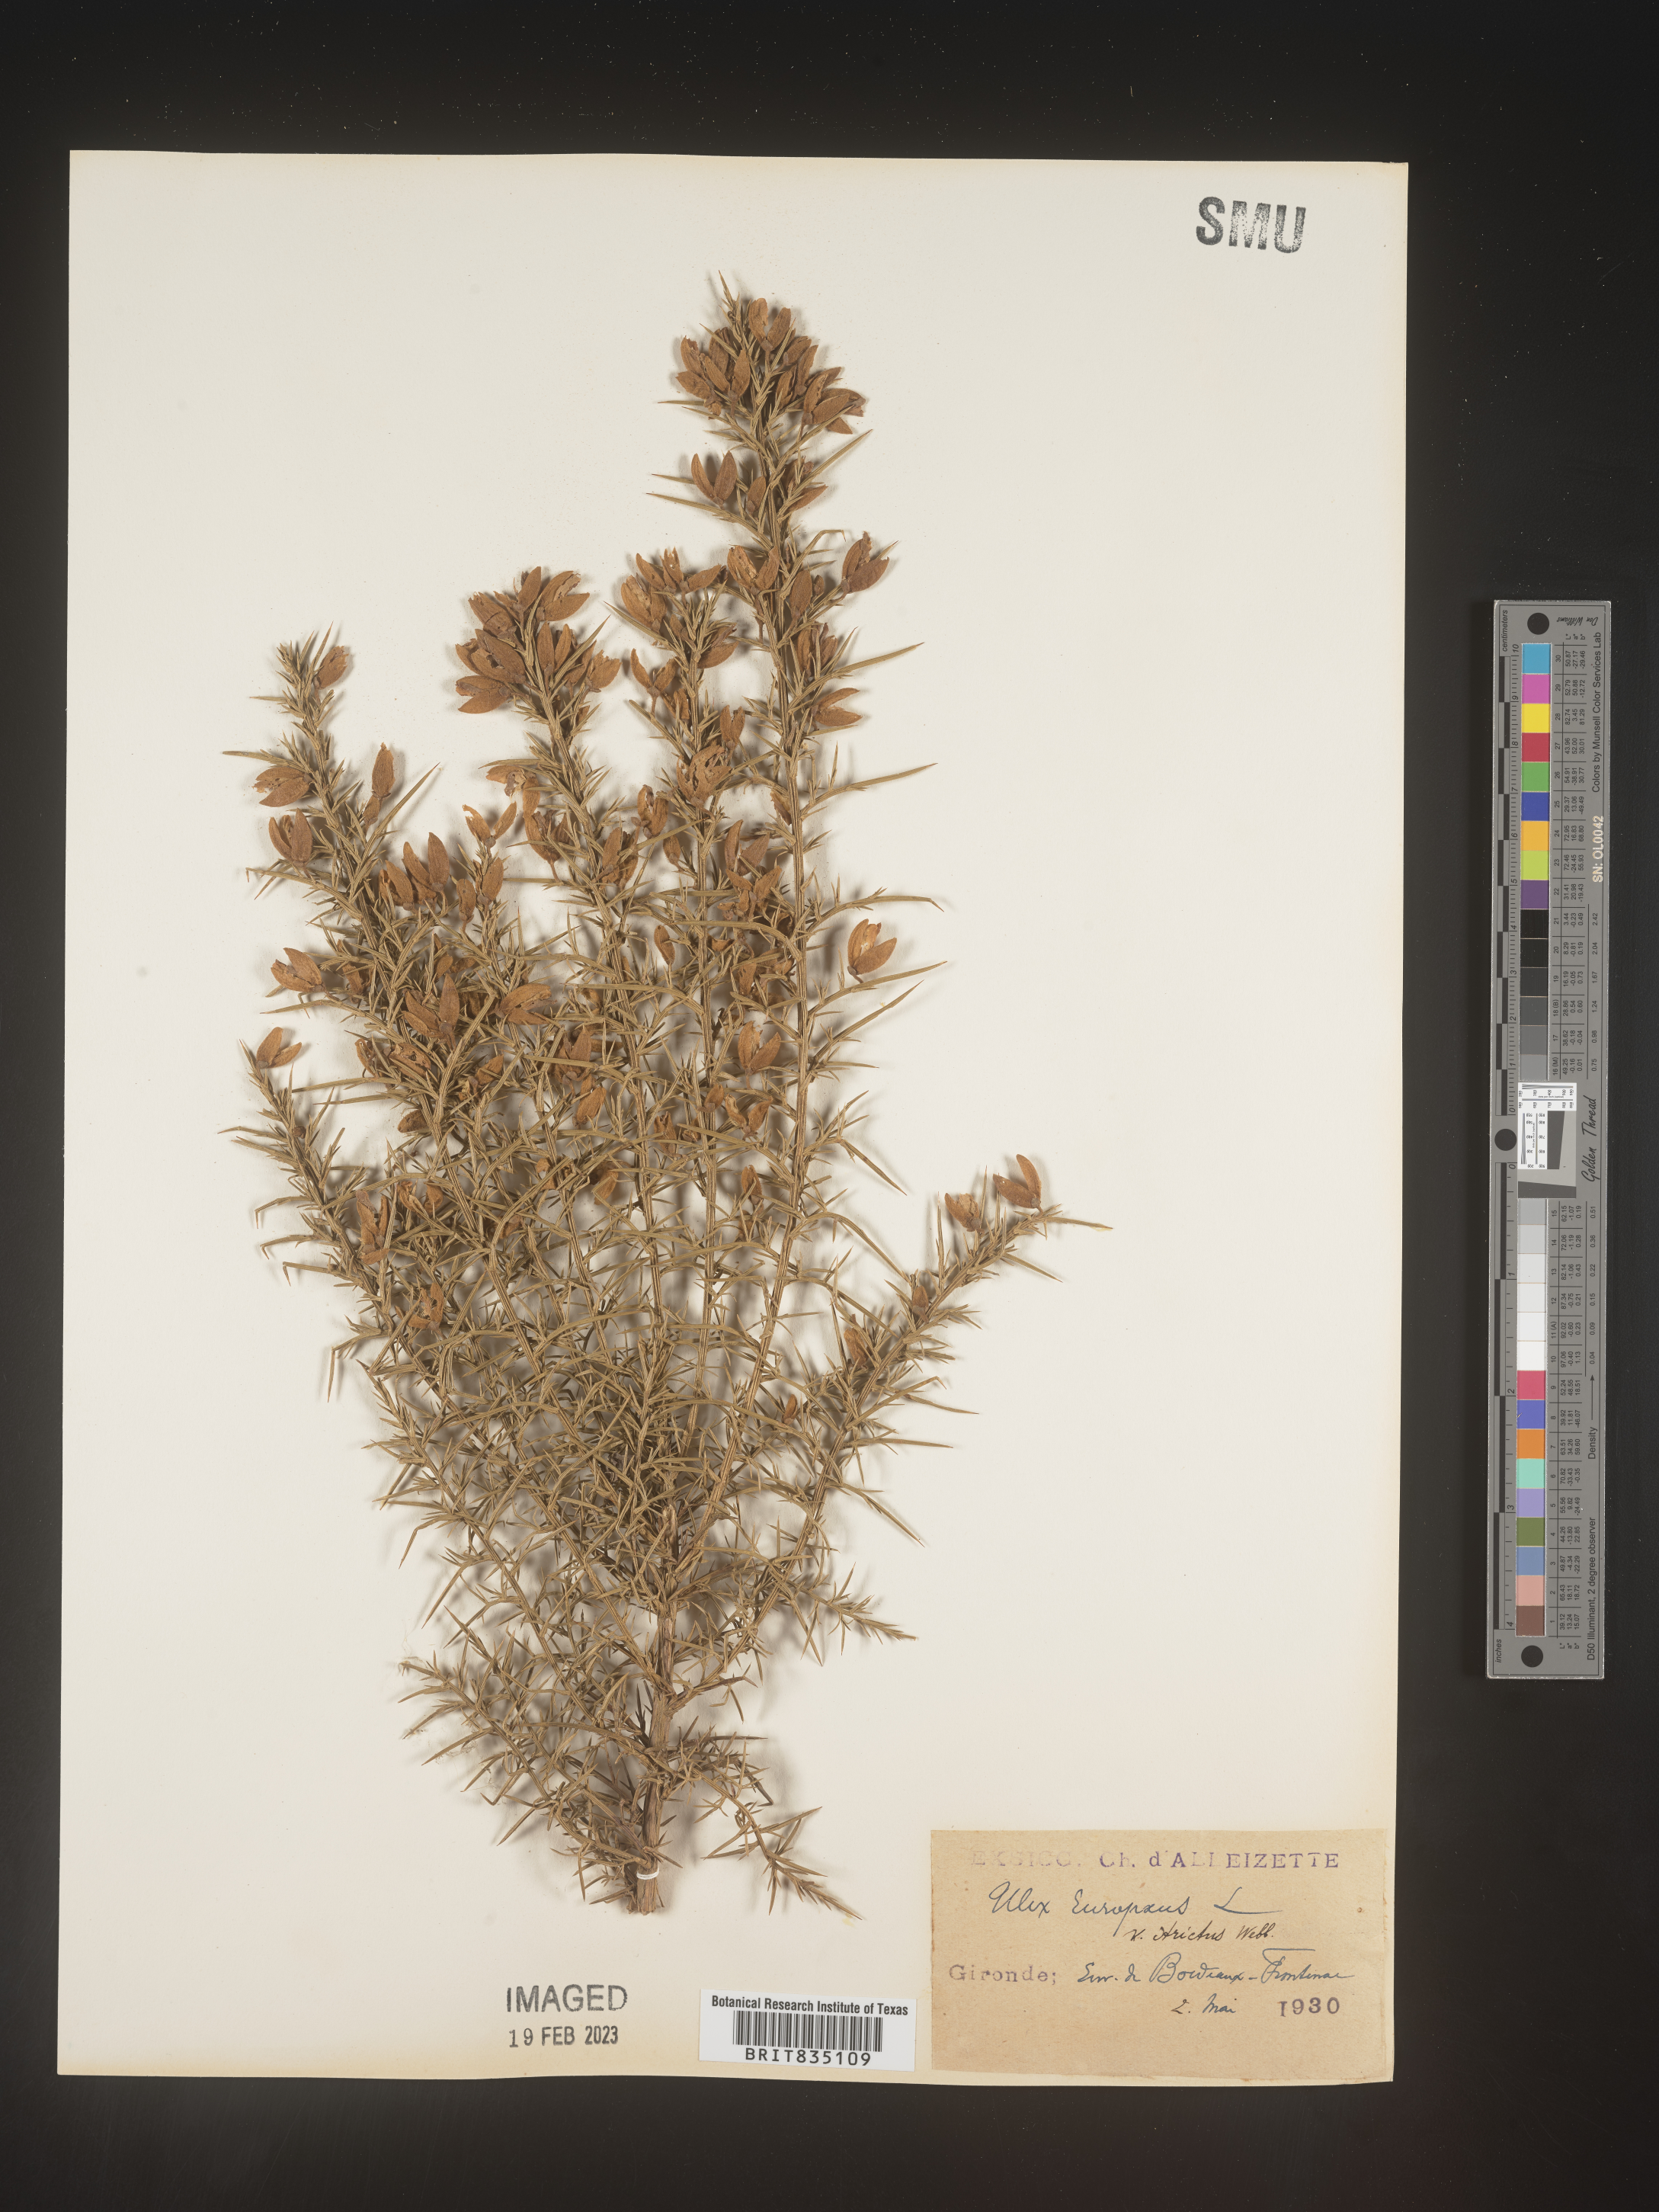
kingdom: Plantae
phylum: Tracheophyta
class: Magnoliopsida
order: Fabales
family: Fabaceae
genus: Ulex
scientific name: Ulex
